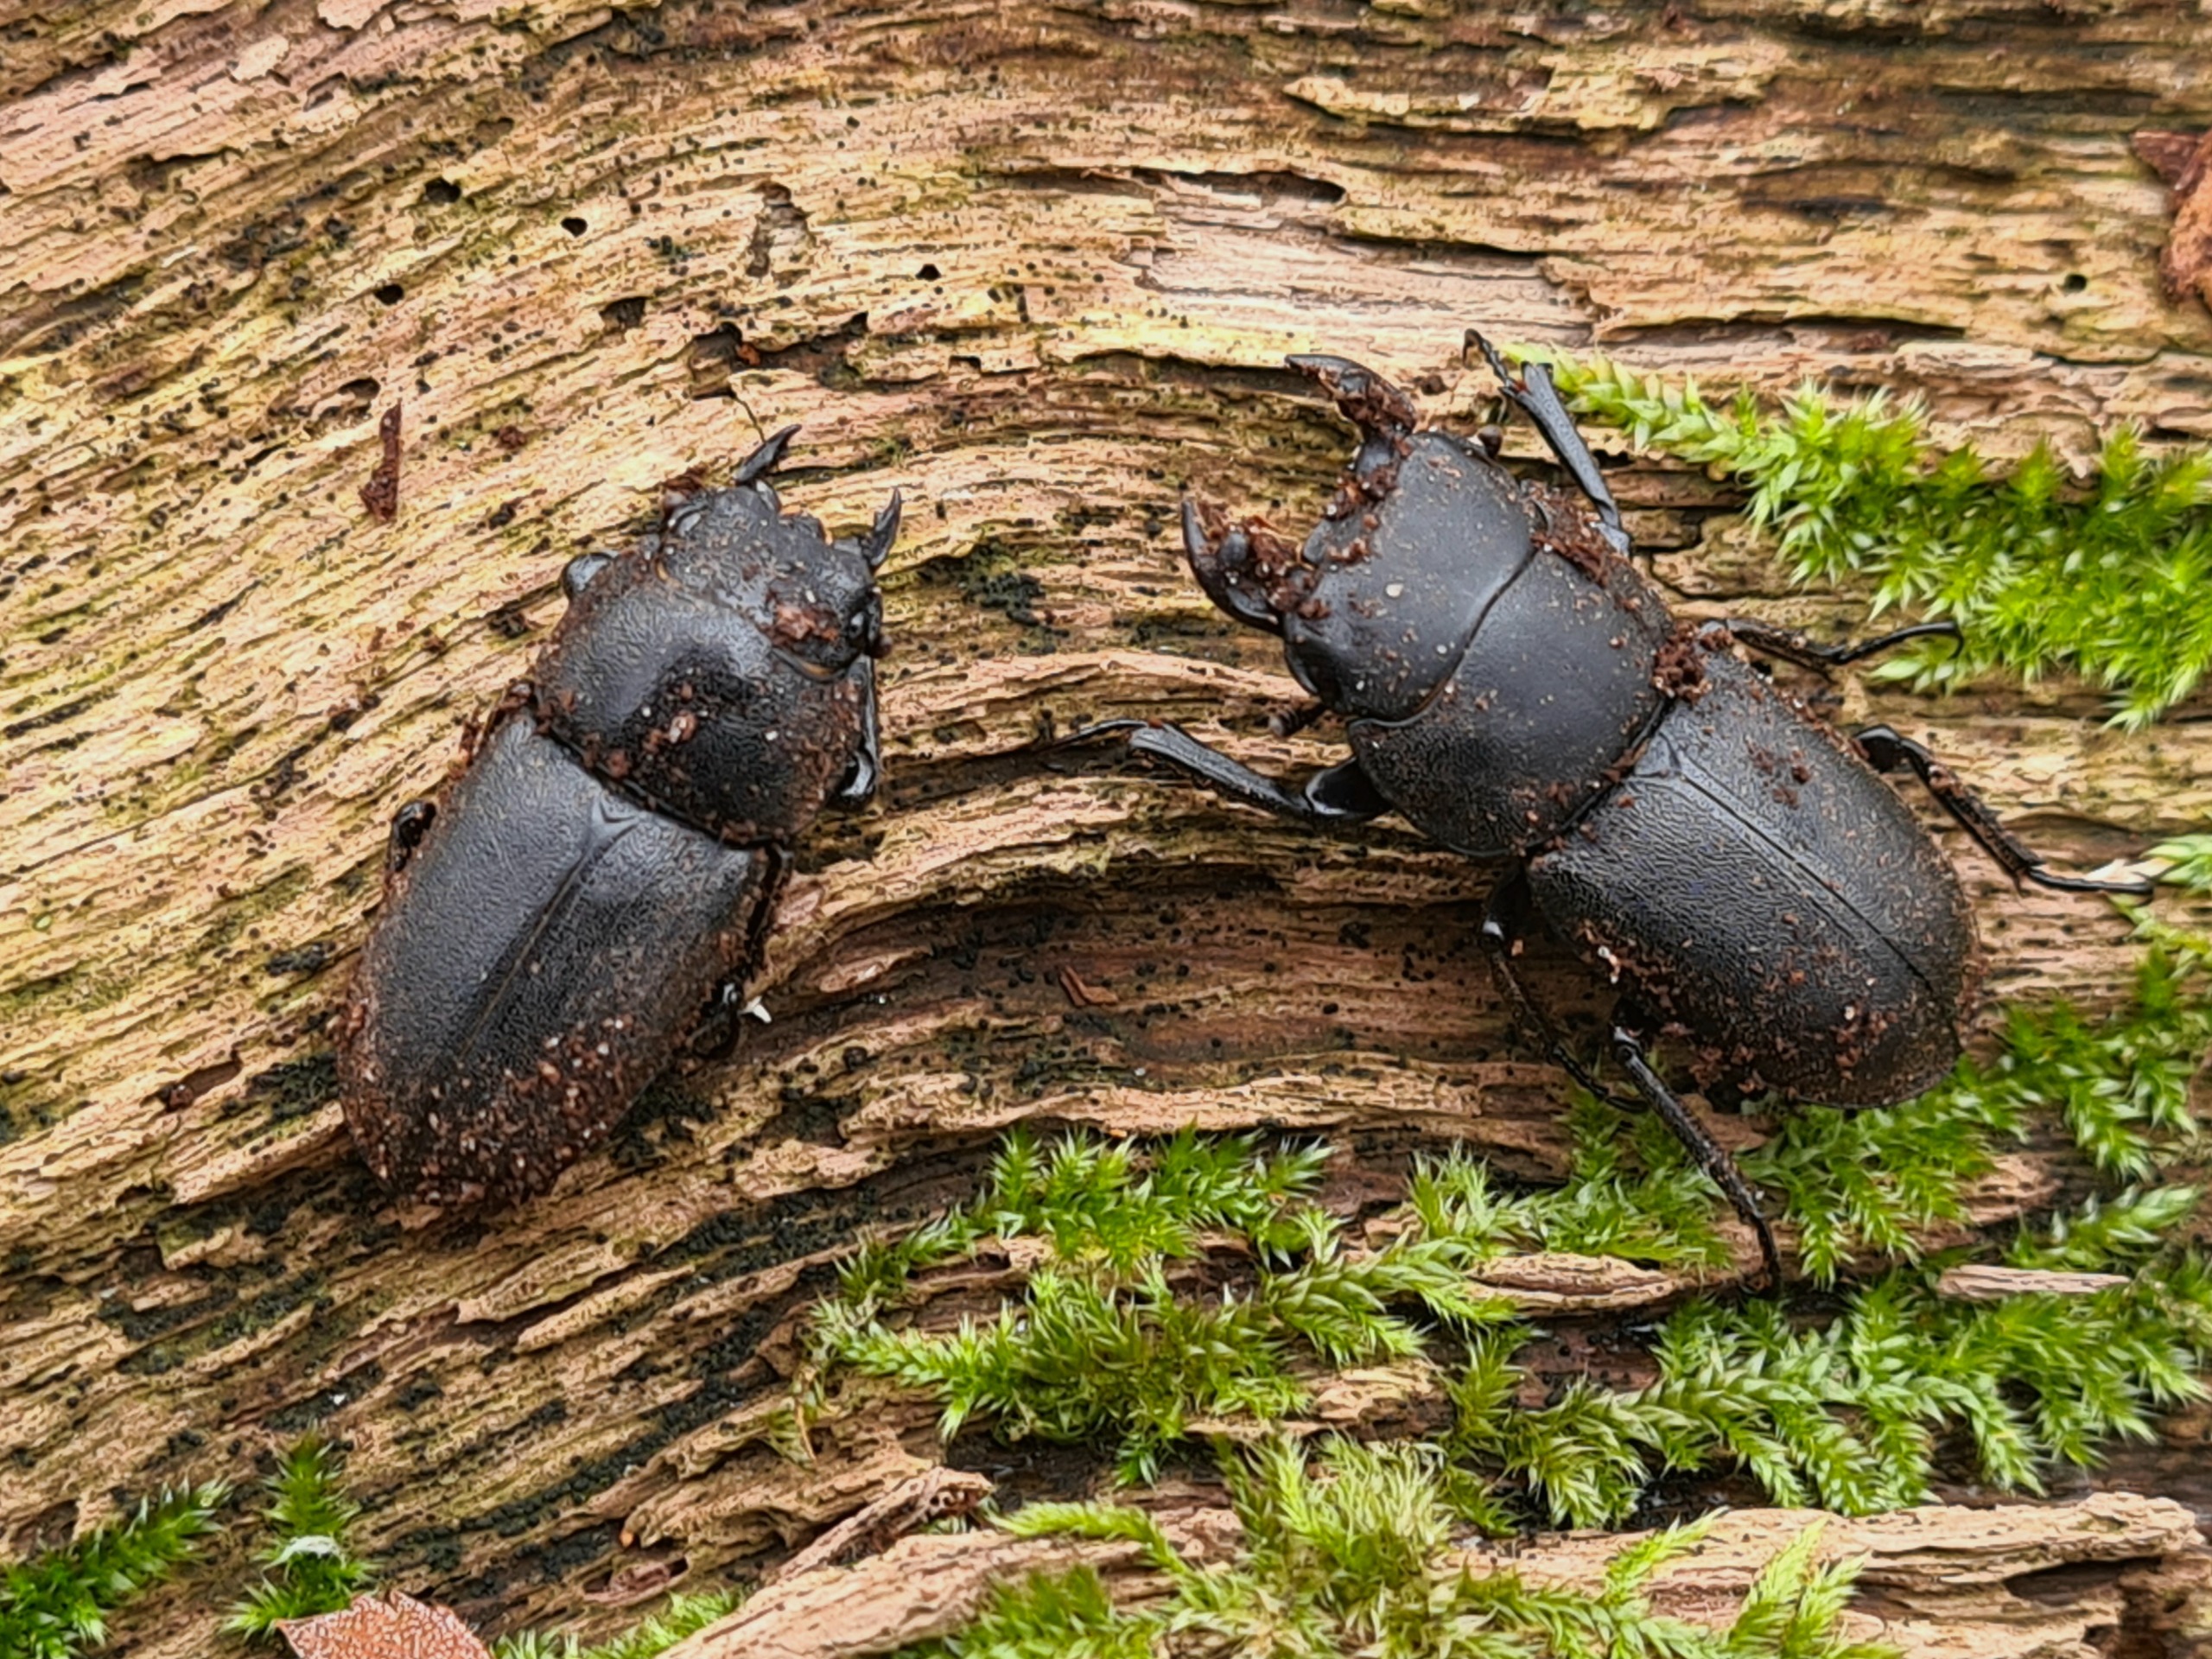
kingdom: Animalia
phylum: Arthropoda
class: Insecta
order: Coleoptera
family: Lucanidae
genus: Dorcus
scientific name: Dorcus parallelipipedus
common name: Bøghjort
